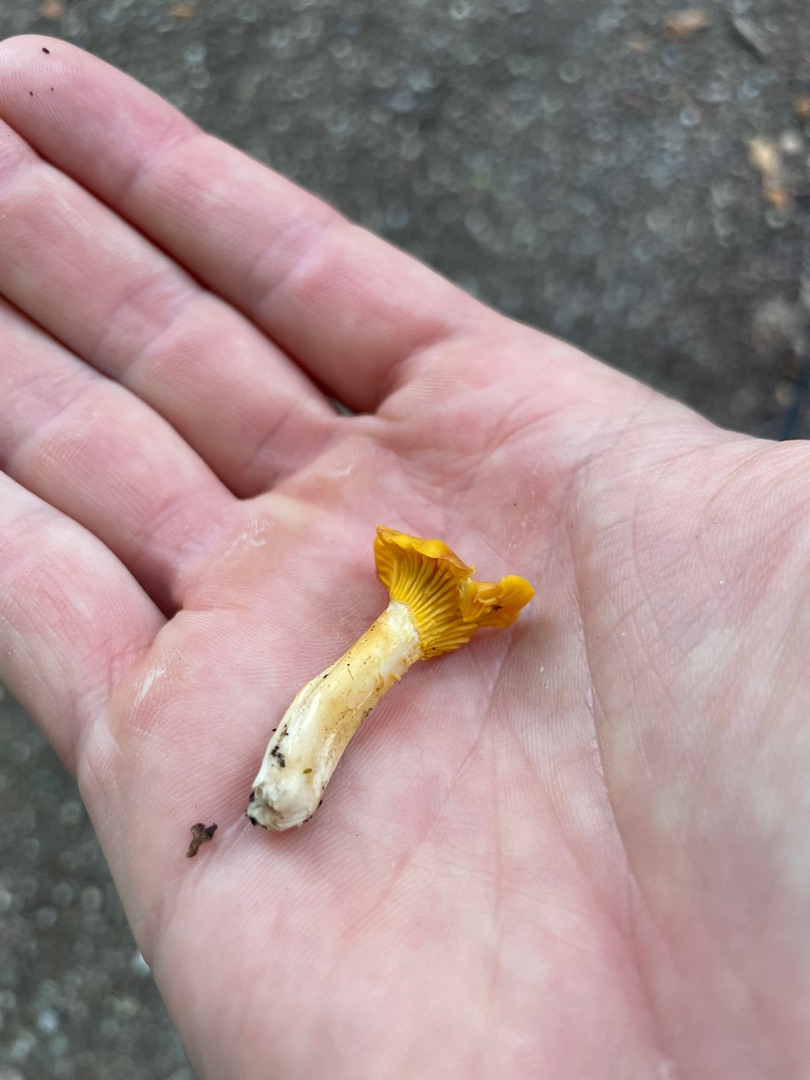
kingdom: Fungi
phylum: Basidiomycota
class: Agaricomycetes
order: Cantharellales
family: Hydnaceae
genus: Cantharellus
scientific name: Cantharellus cibarius
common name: Almindelig kantarel
